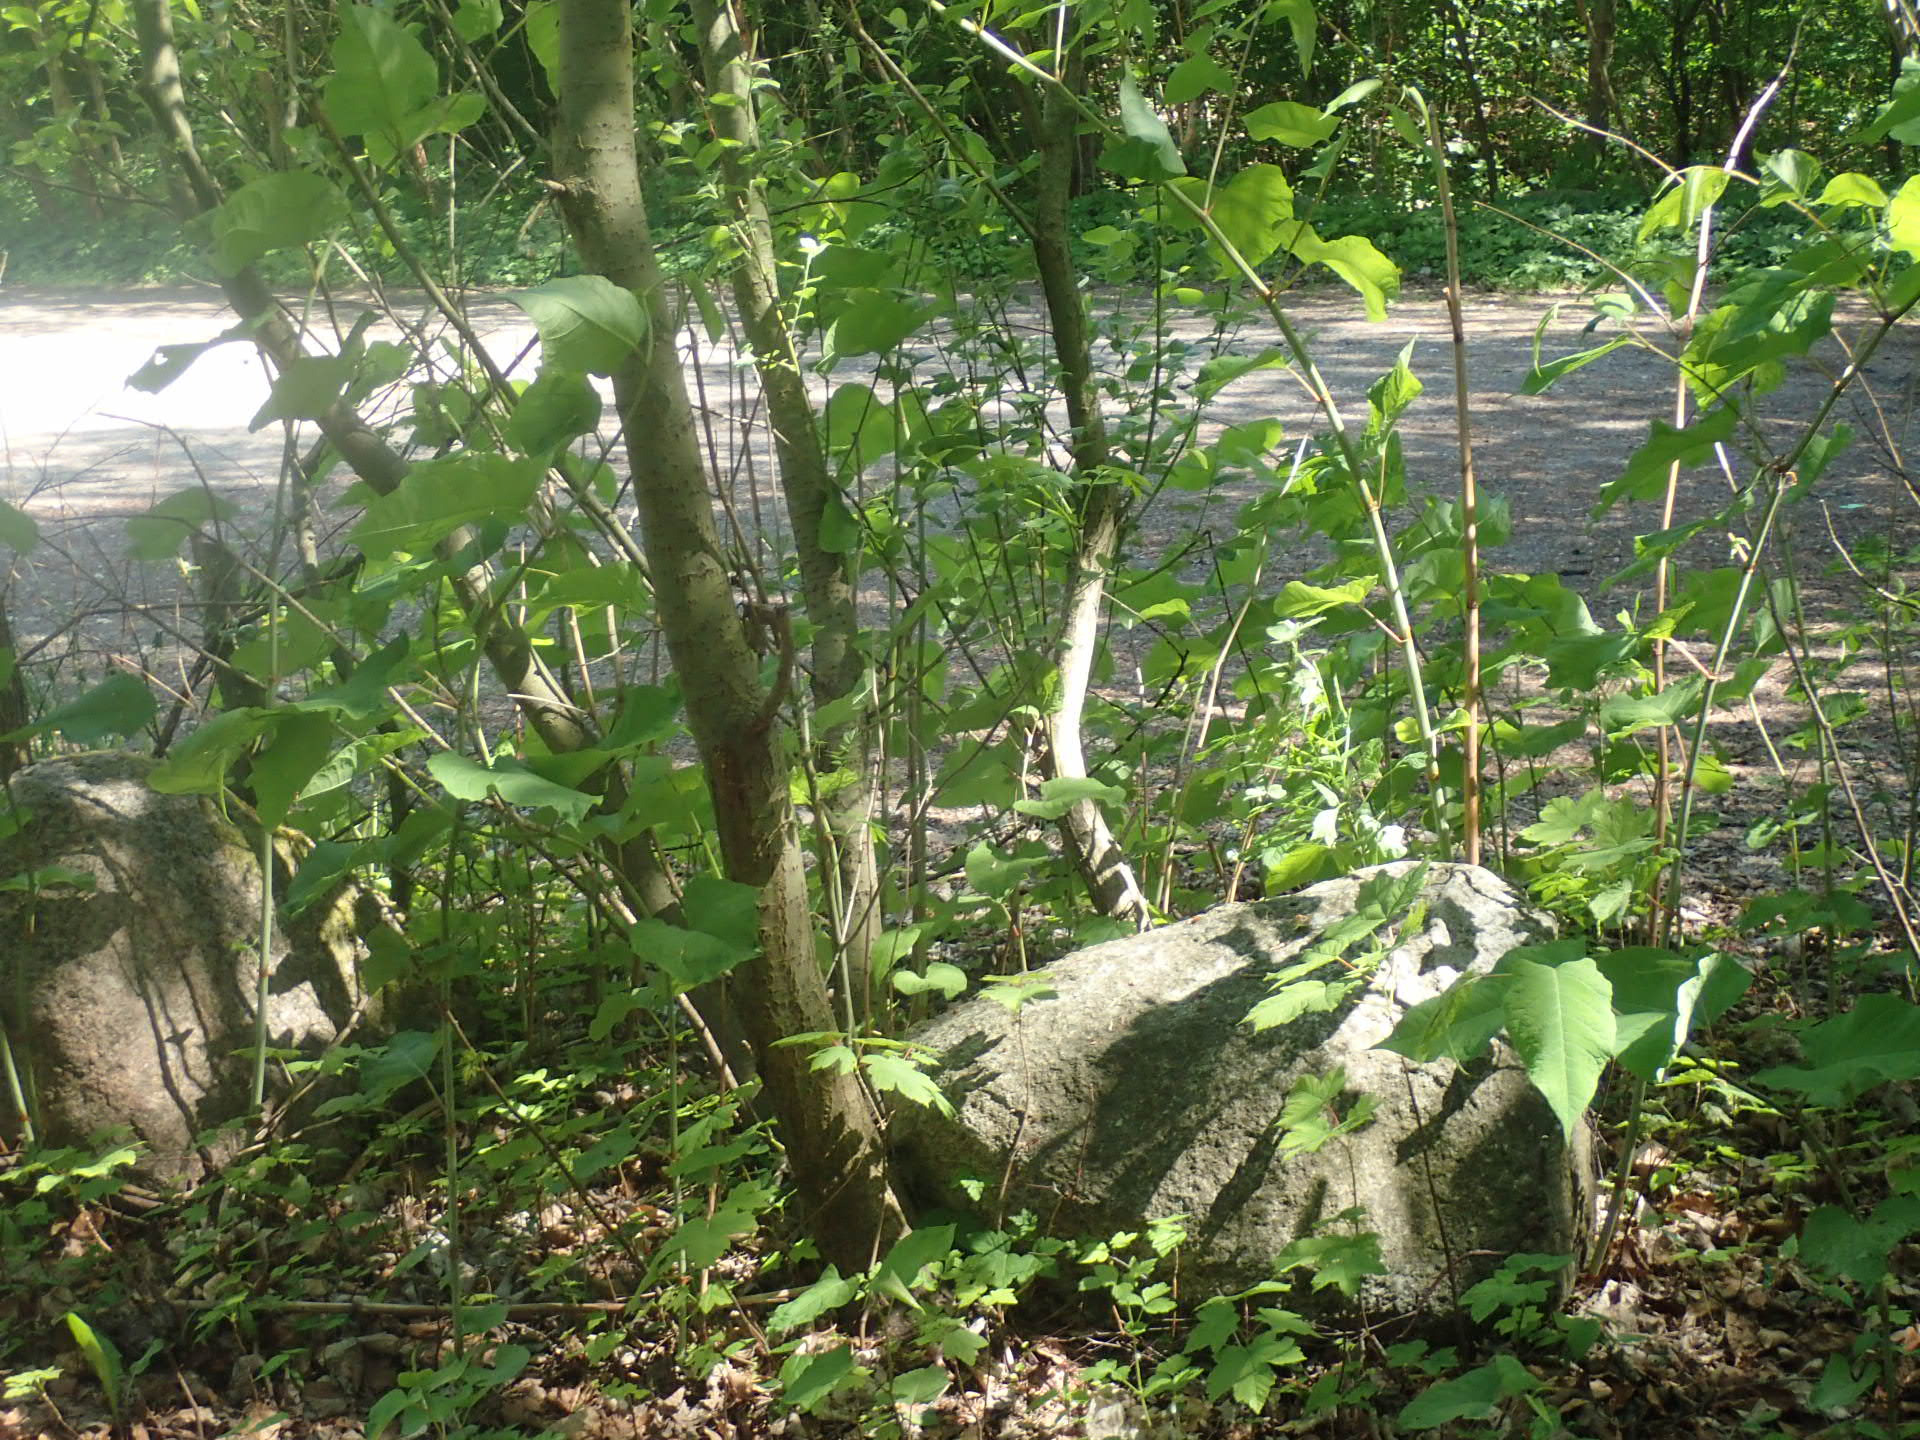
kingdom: Plantae
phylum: Tracheophyta
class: Magnoliopsida
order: Caryophyllales
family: Polygonaceae
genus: Reynoutria
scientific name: Reynoutria sachalinensis
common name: Kæmpe-pileurt
